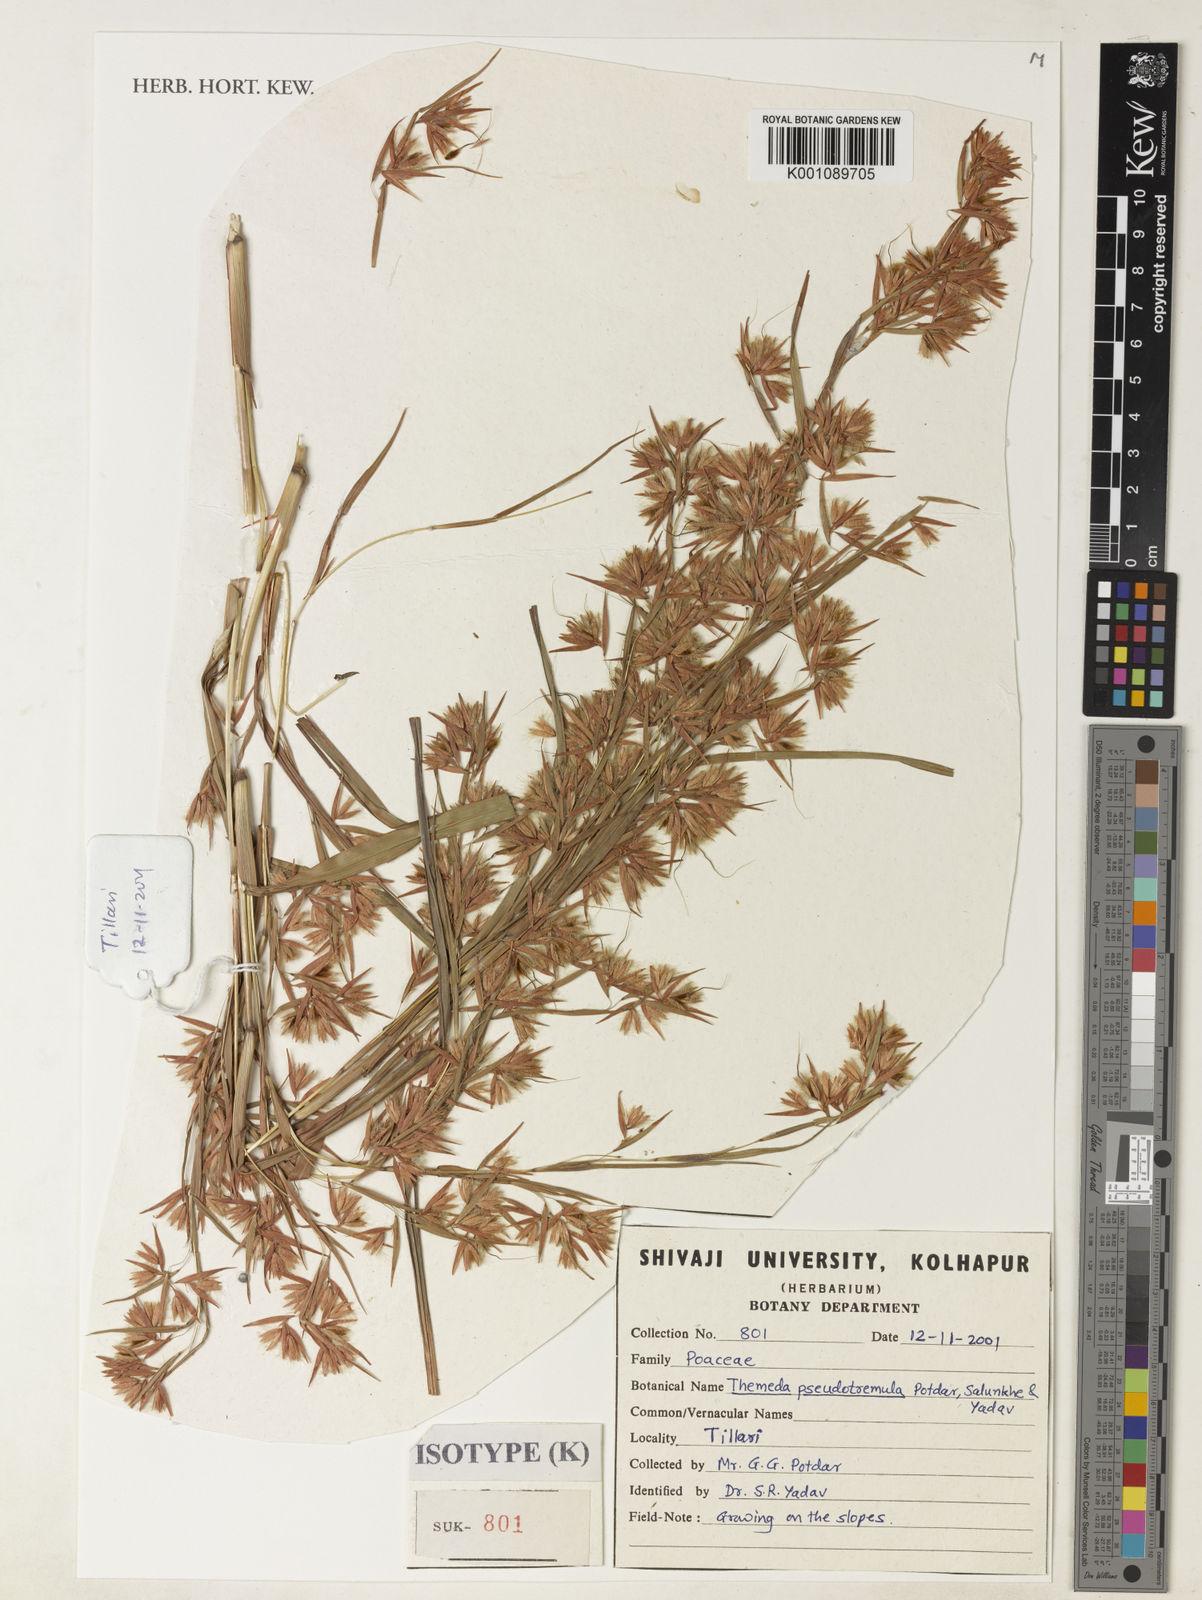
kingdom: Plantae
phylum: Tracheophyta
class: Liliopsida
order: Poales
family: Poaceae
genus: Themeda
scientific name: Themeda pseudotremula
